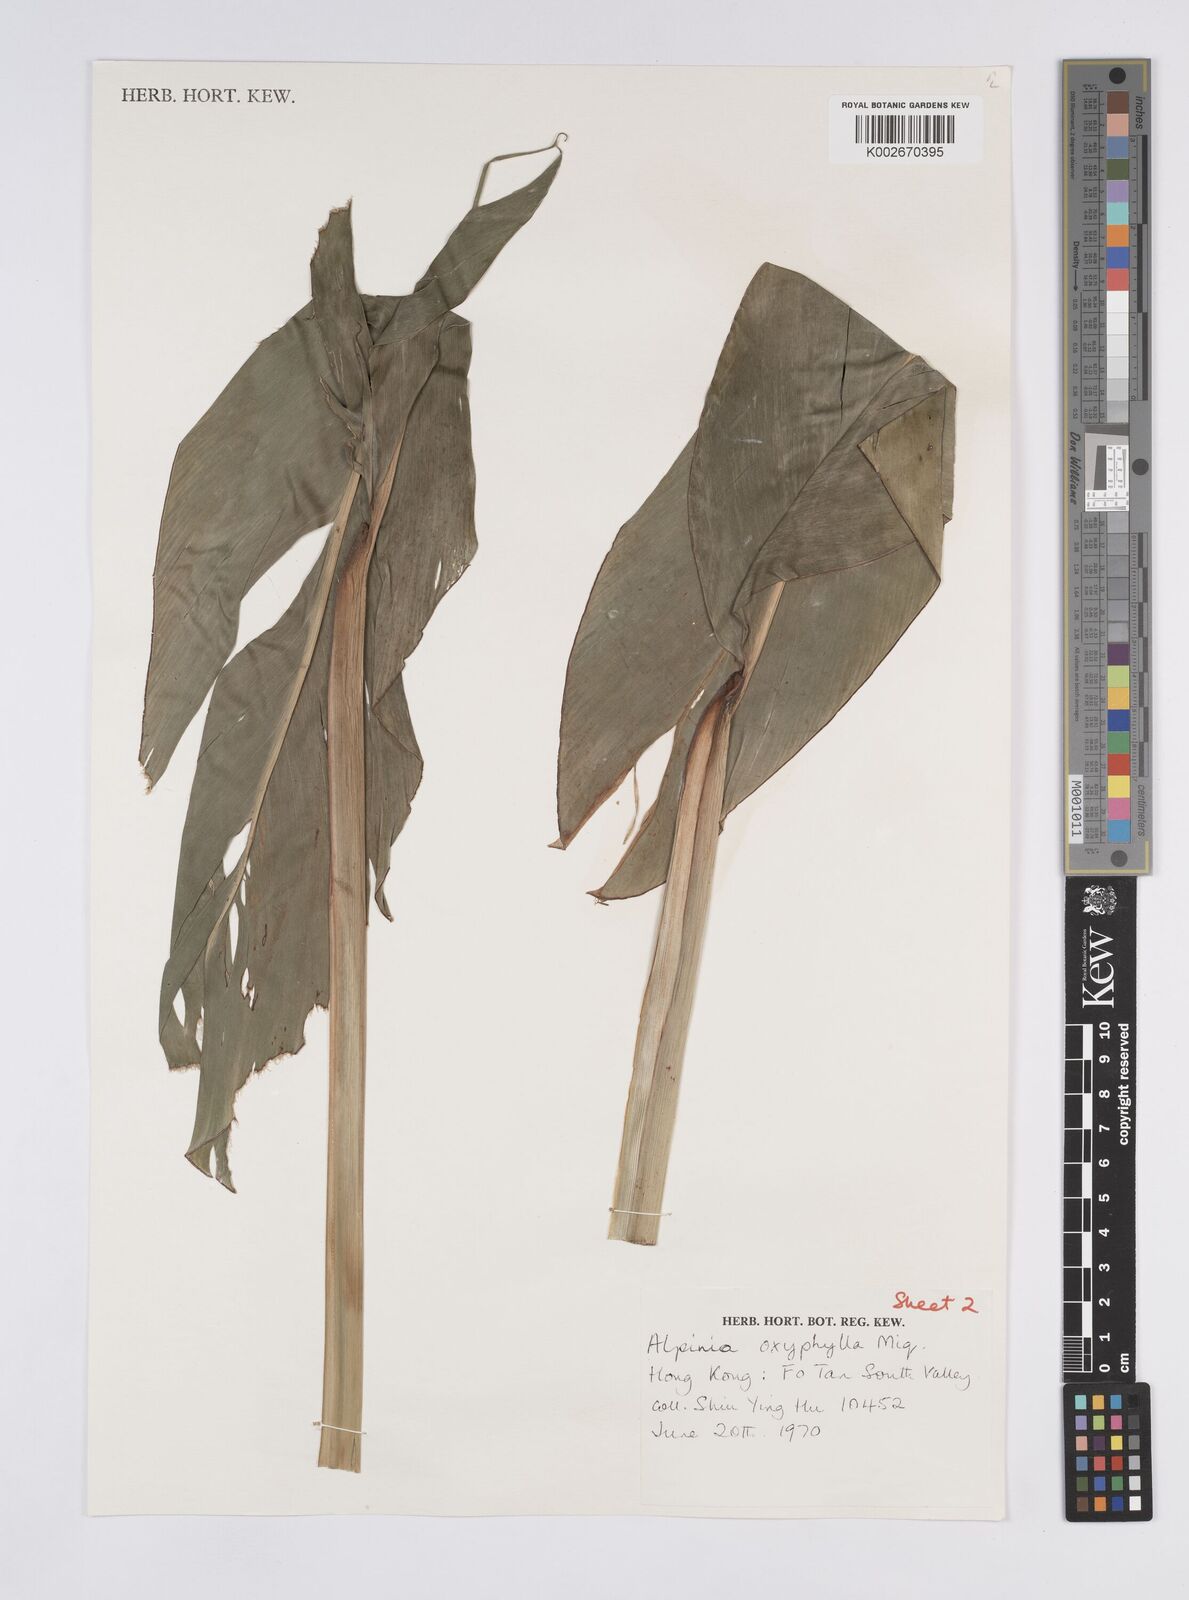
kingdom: Plantae
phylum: Tracheophyta
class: Liliopsida
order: Zingiberales
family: Zingiberaceae
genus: Alpinia
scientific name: Alpinia galanga
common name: Siamese-ginger
